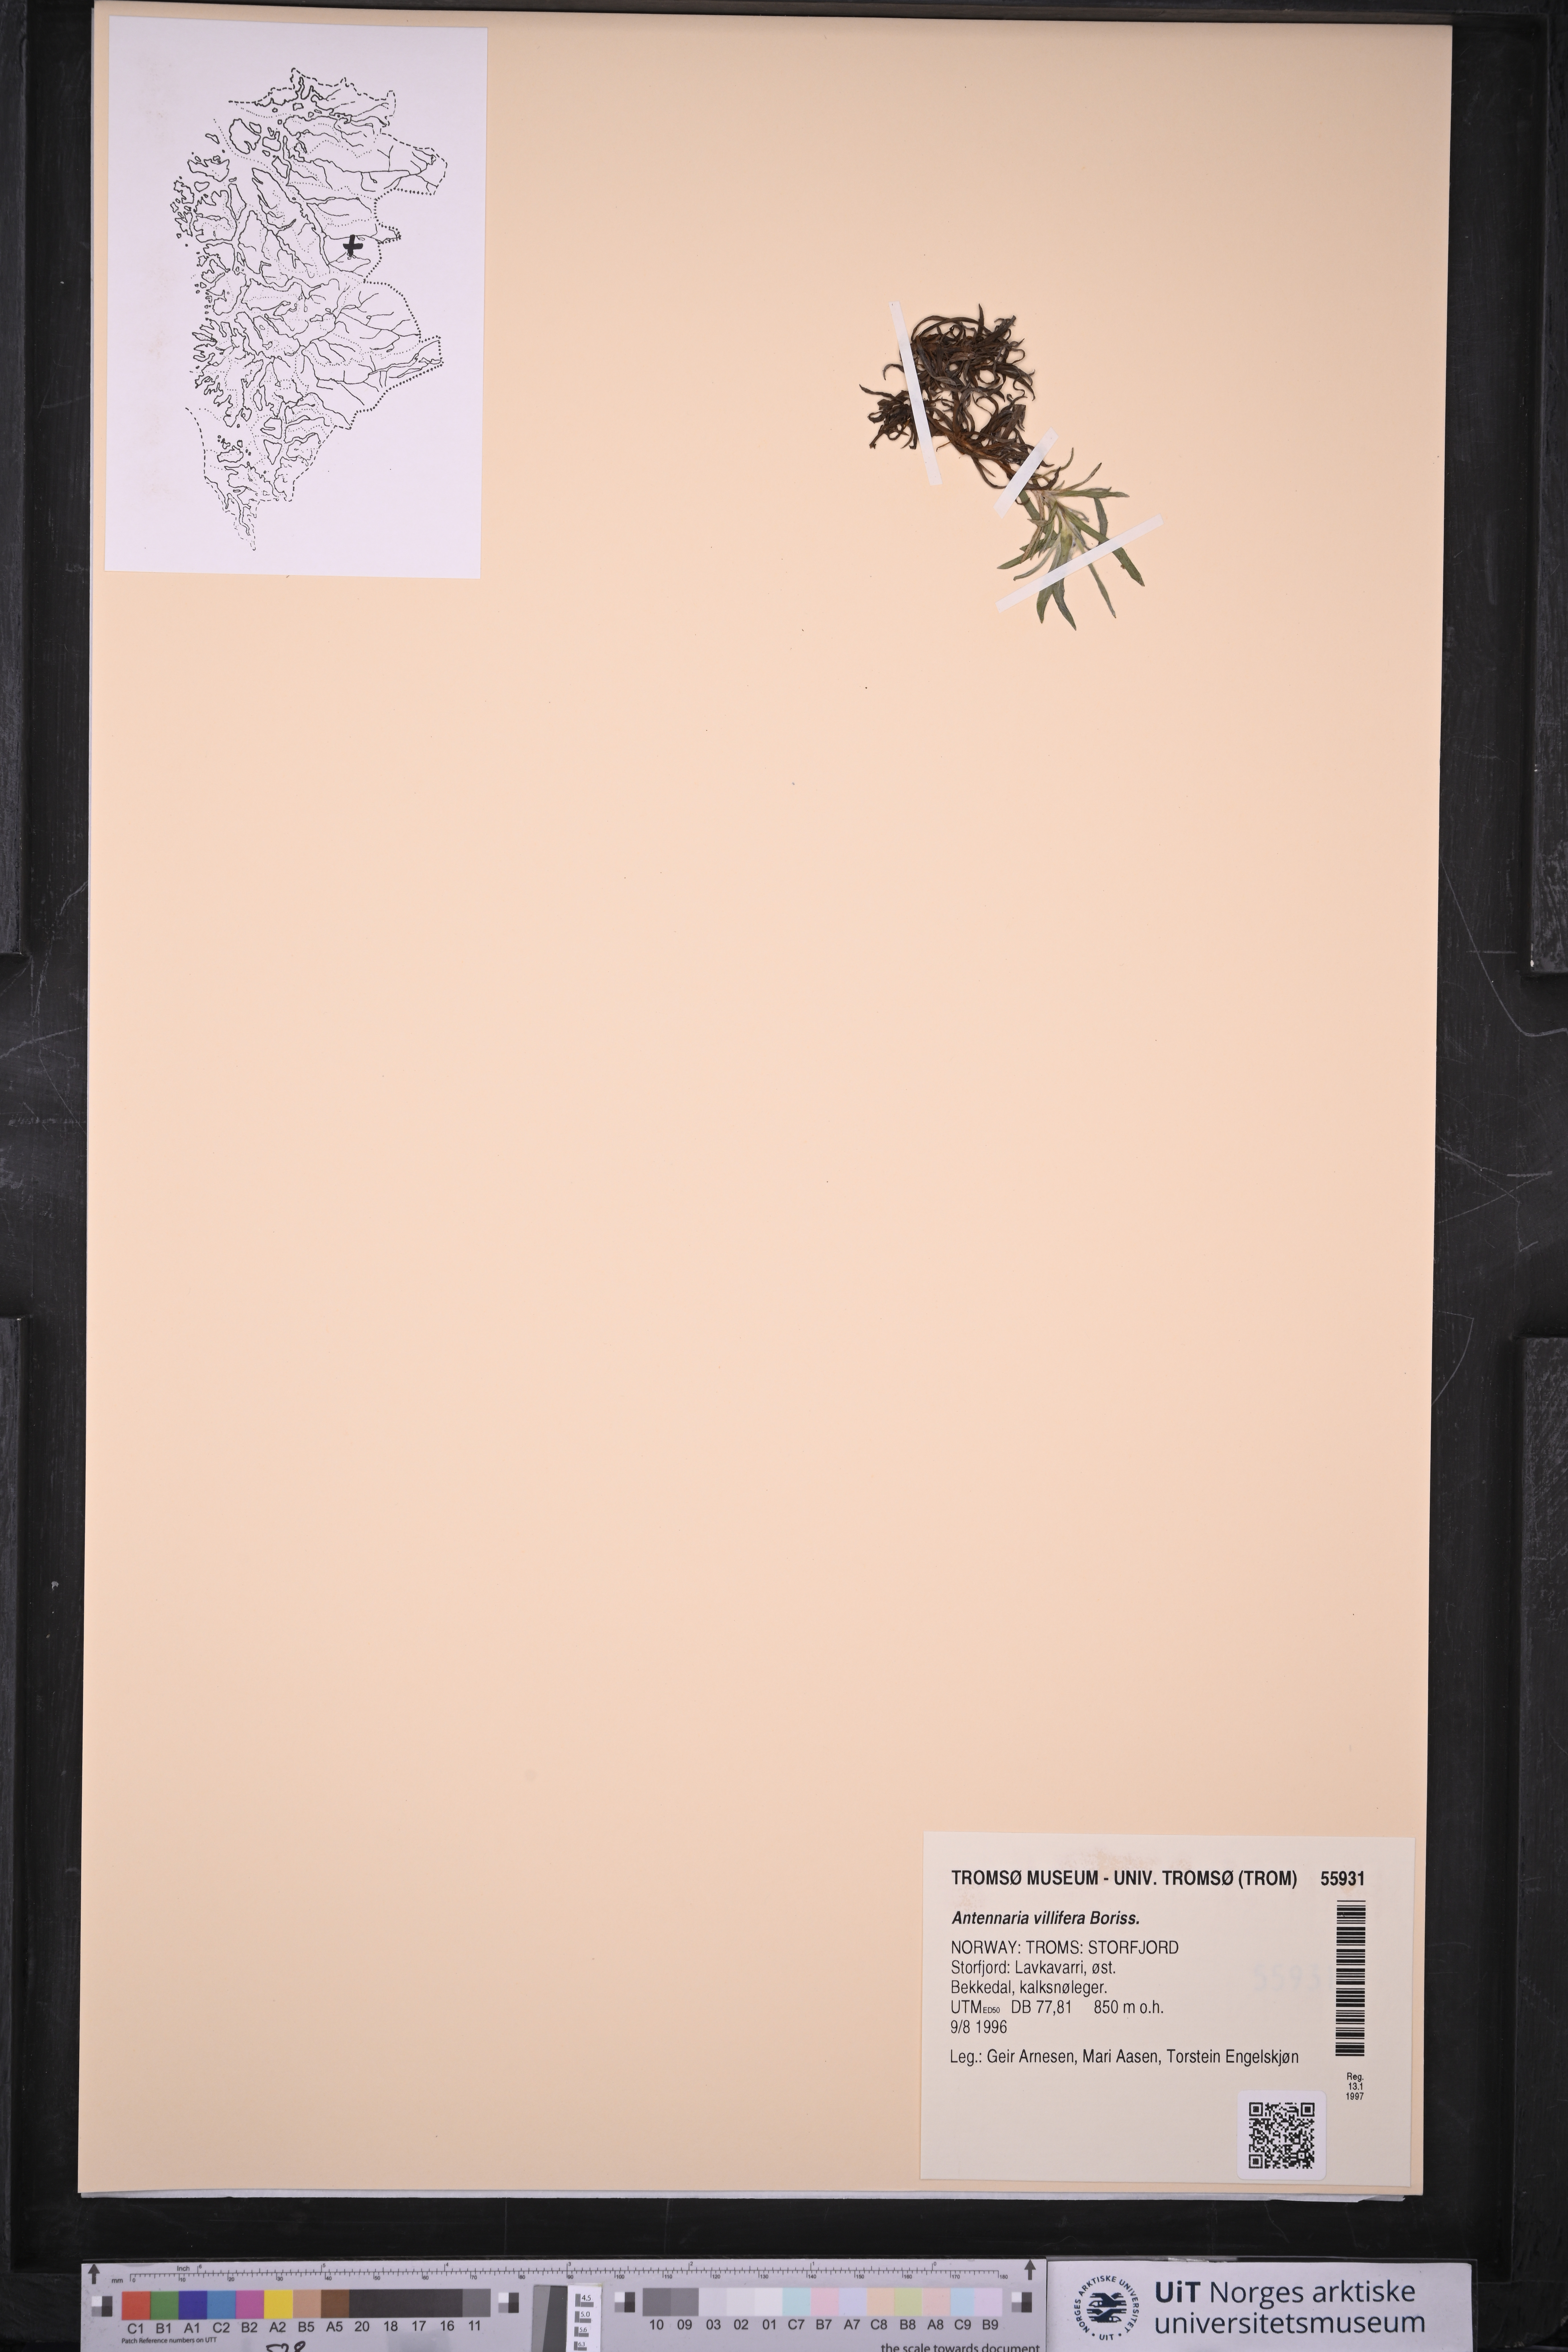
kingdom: Plantae
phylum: Tracheophyta
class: Magnoliopsida
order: Asterales
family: Asteraceae
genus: Antennaria
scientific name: Antennaria lanata
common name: Woolly pussytoes
